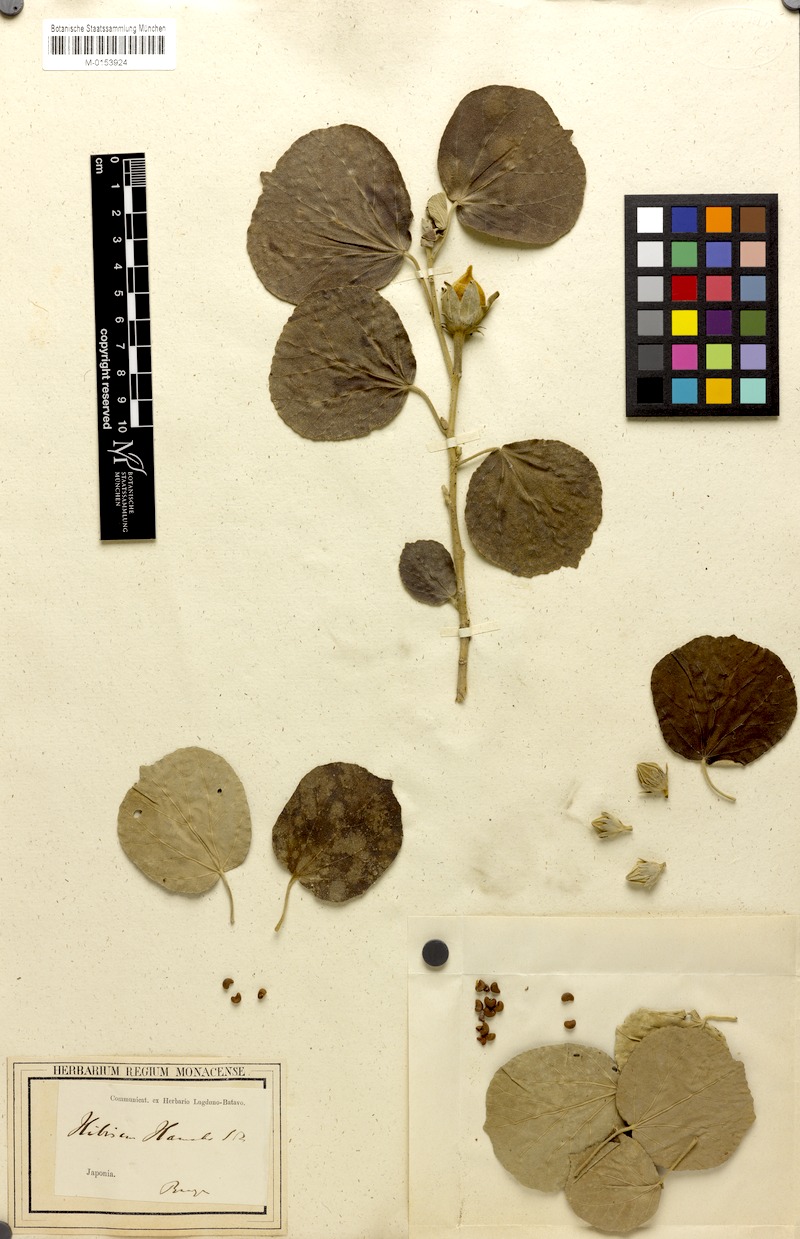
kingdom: Plantae
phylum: Tracheophyta
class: Magnoliopsida
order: Malvales
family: Malvaceae
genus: Talipariti
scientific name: Talipariti hamabo
